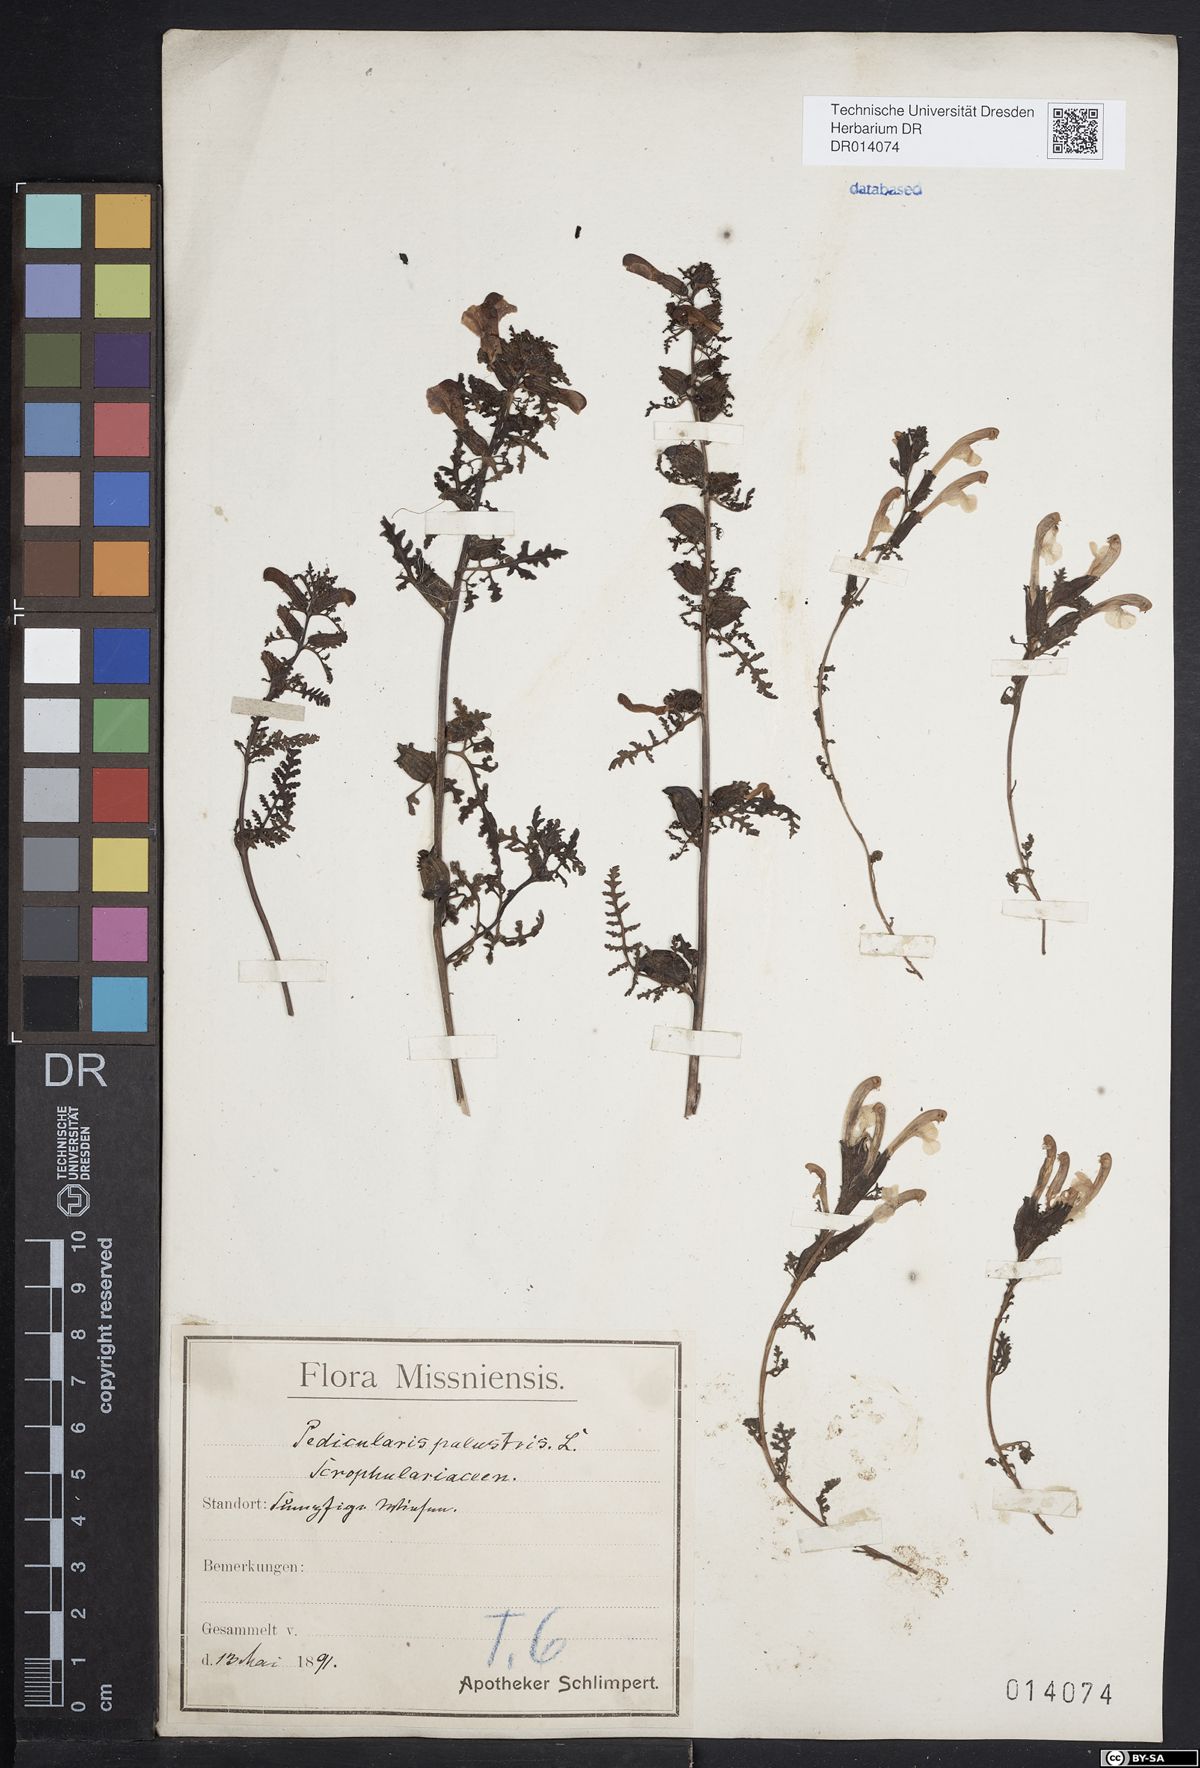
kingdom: Plantae
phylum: Tracheophyta
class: Magnoliopsida
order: Lamiales
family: Orobanchaceae
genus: Pedicularis
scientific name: Pedicularis palustris
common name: Marsh lousewort
